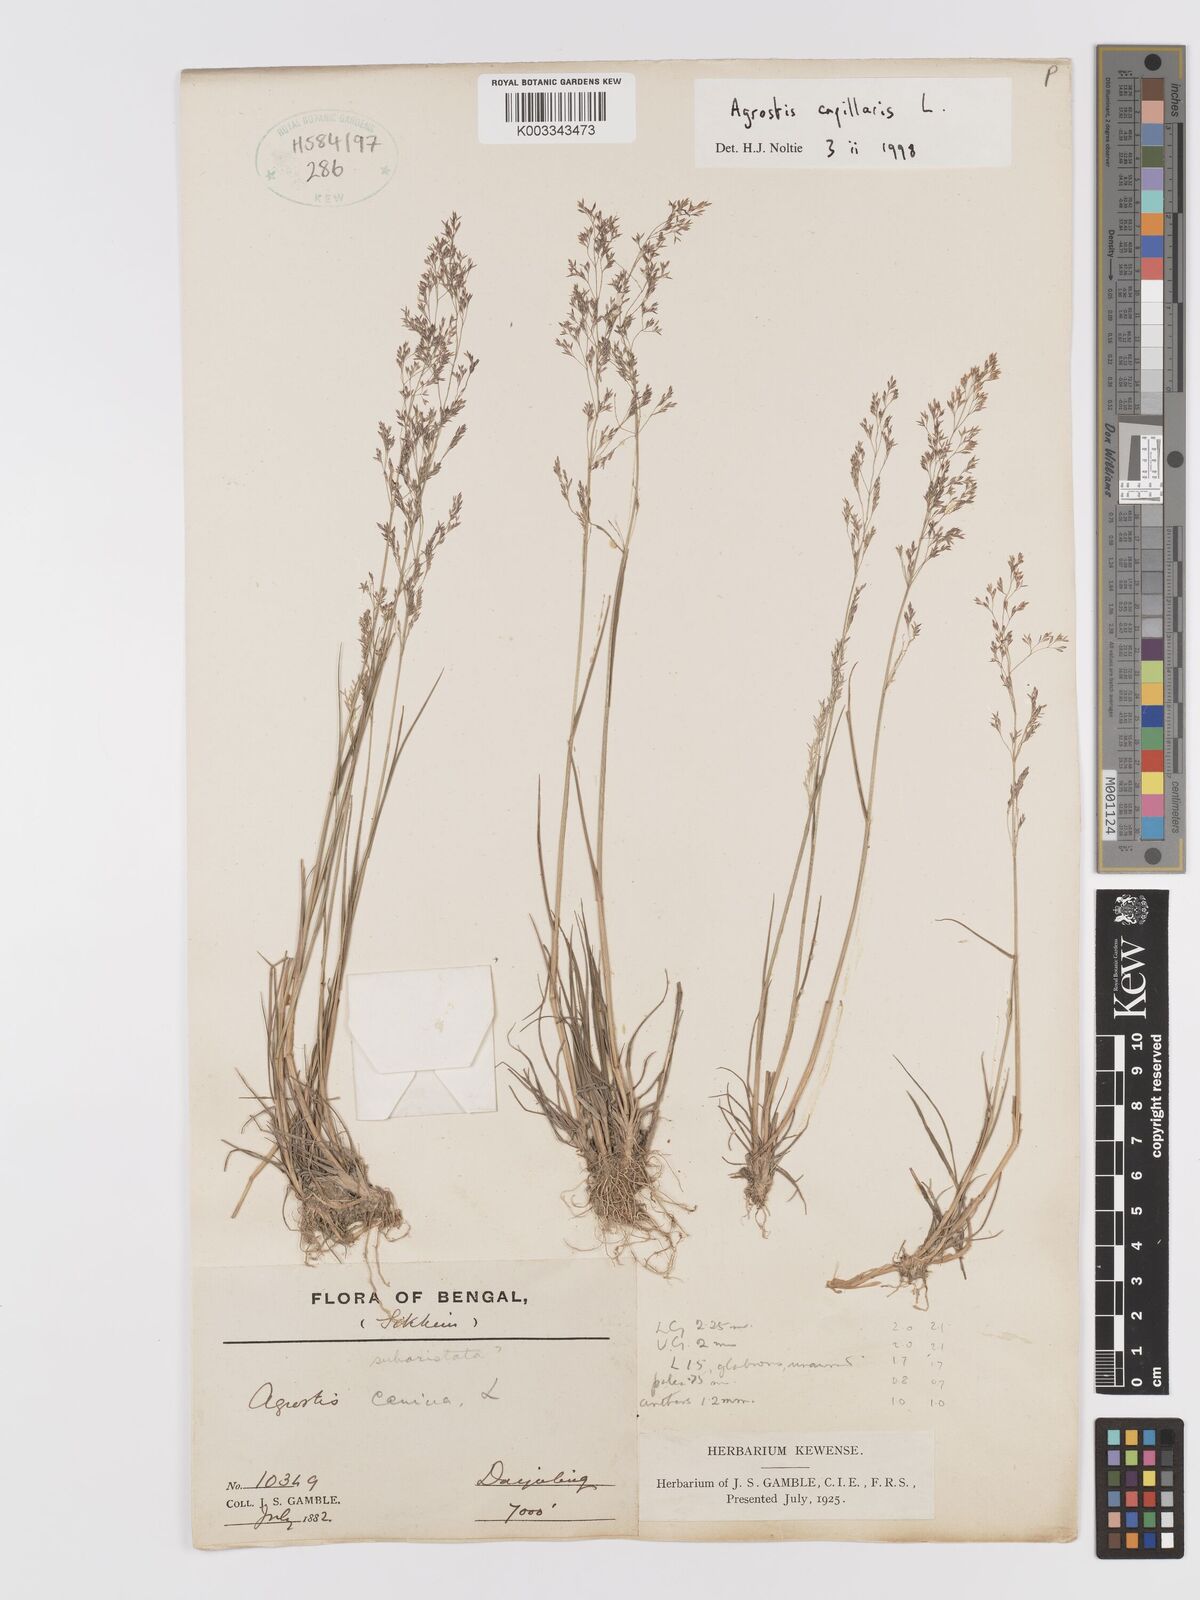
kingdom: Plantae
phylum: Tracheophyta
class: Liliopsida
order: Poales
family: Poaceae
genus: Agrostis
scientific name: Agrostis capillaris
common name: Colonial bentgrass
